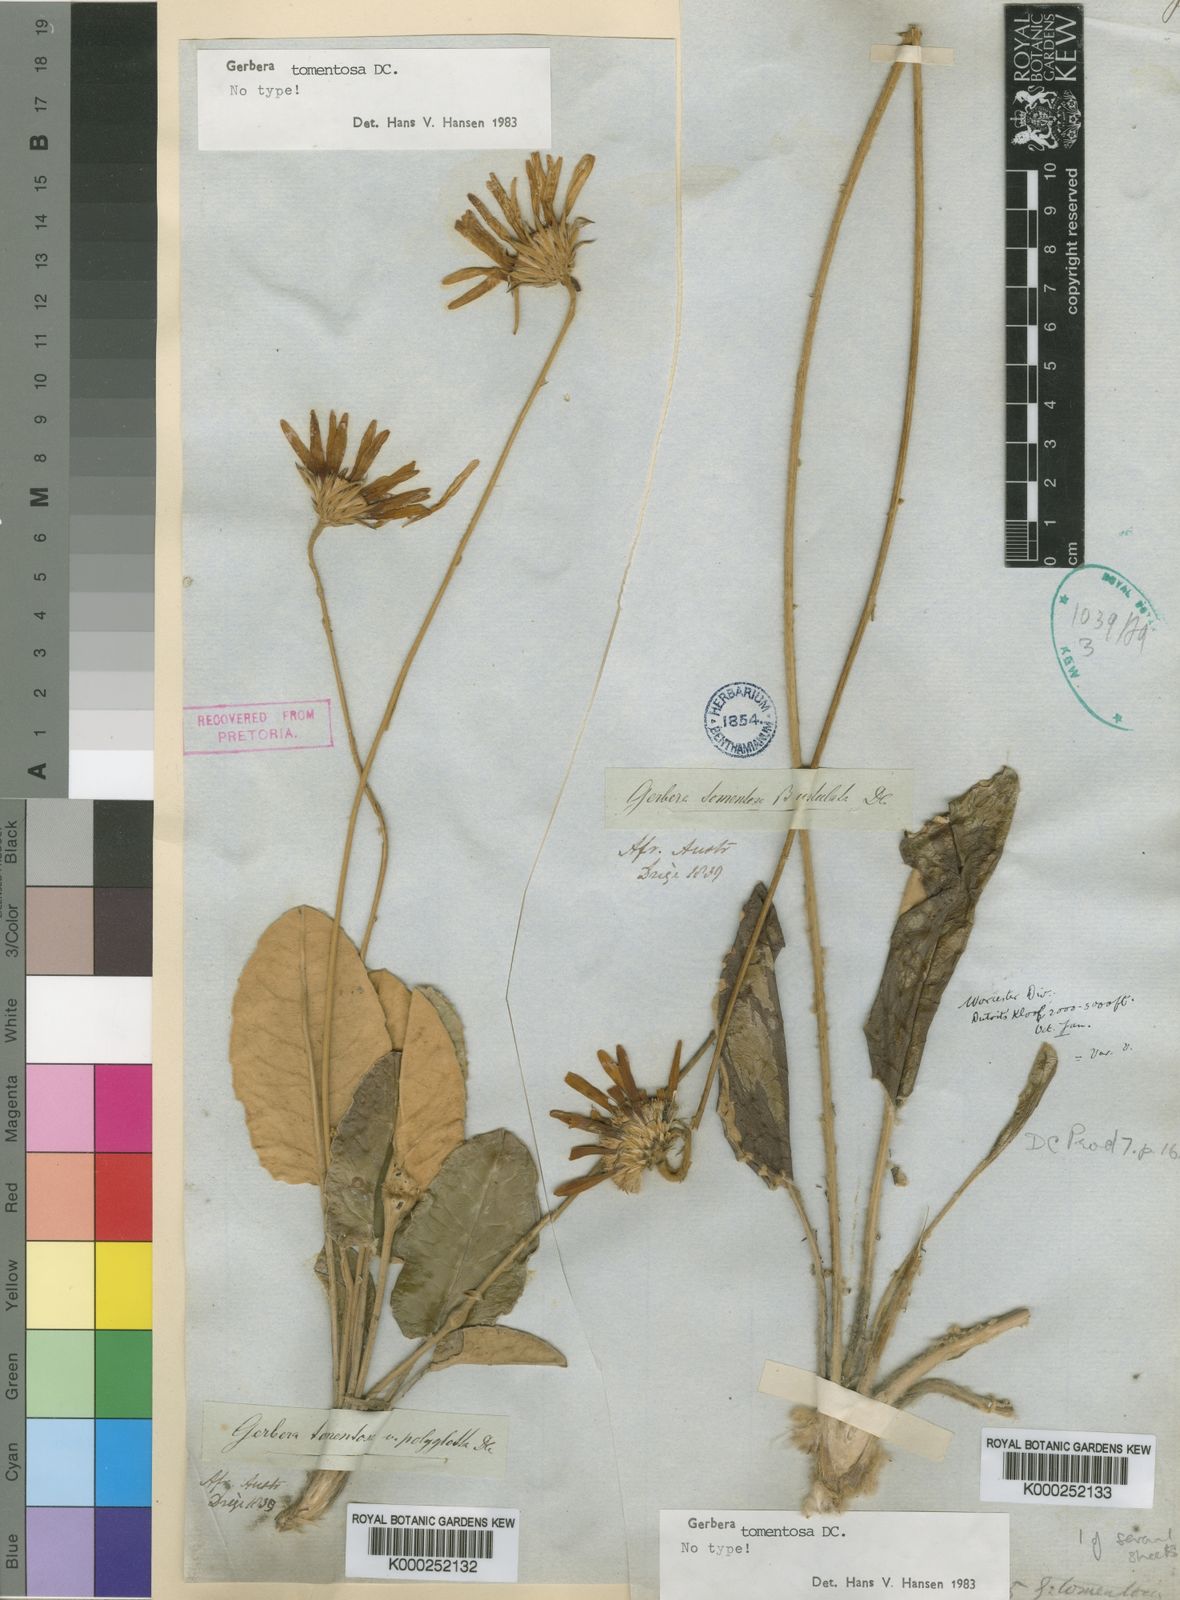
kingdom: Plantae
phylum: Tracheophyta
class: Magnoliopsida
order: Asterales
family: Asteraceae
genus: Gerbera
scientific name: Gerbera tomentosa
